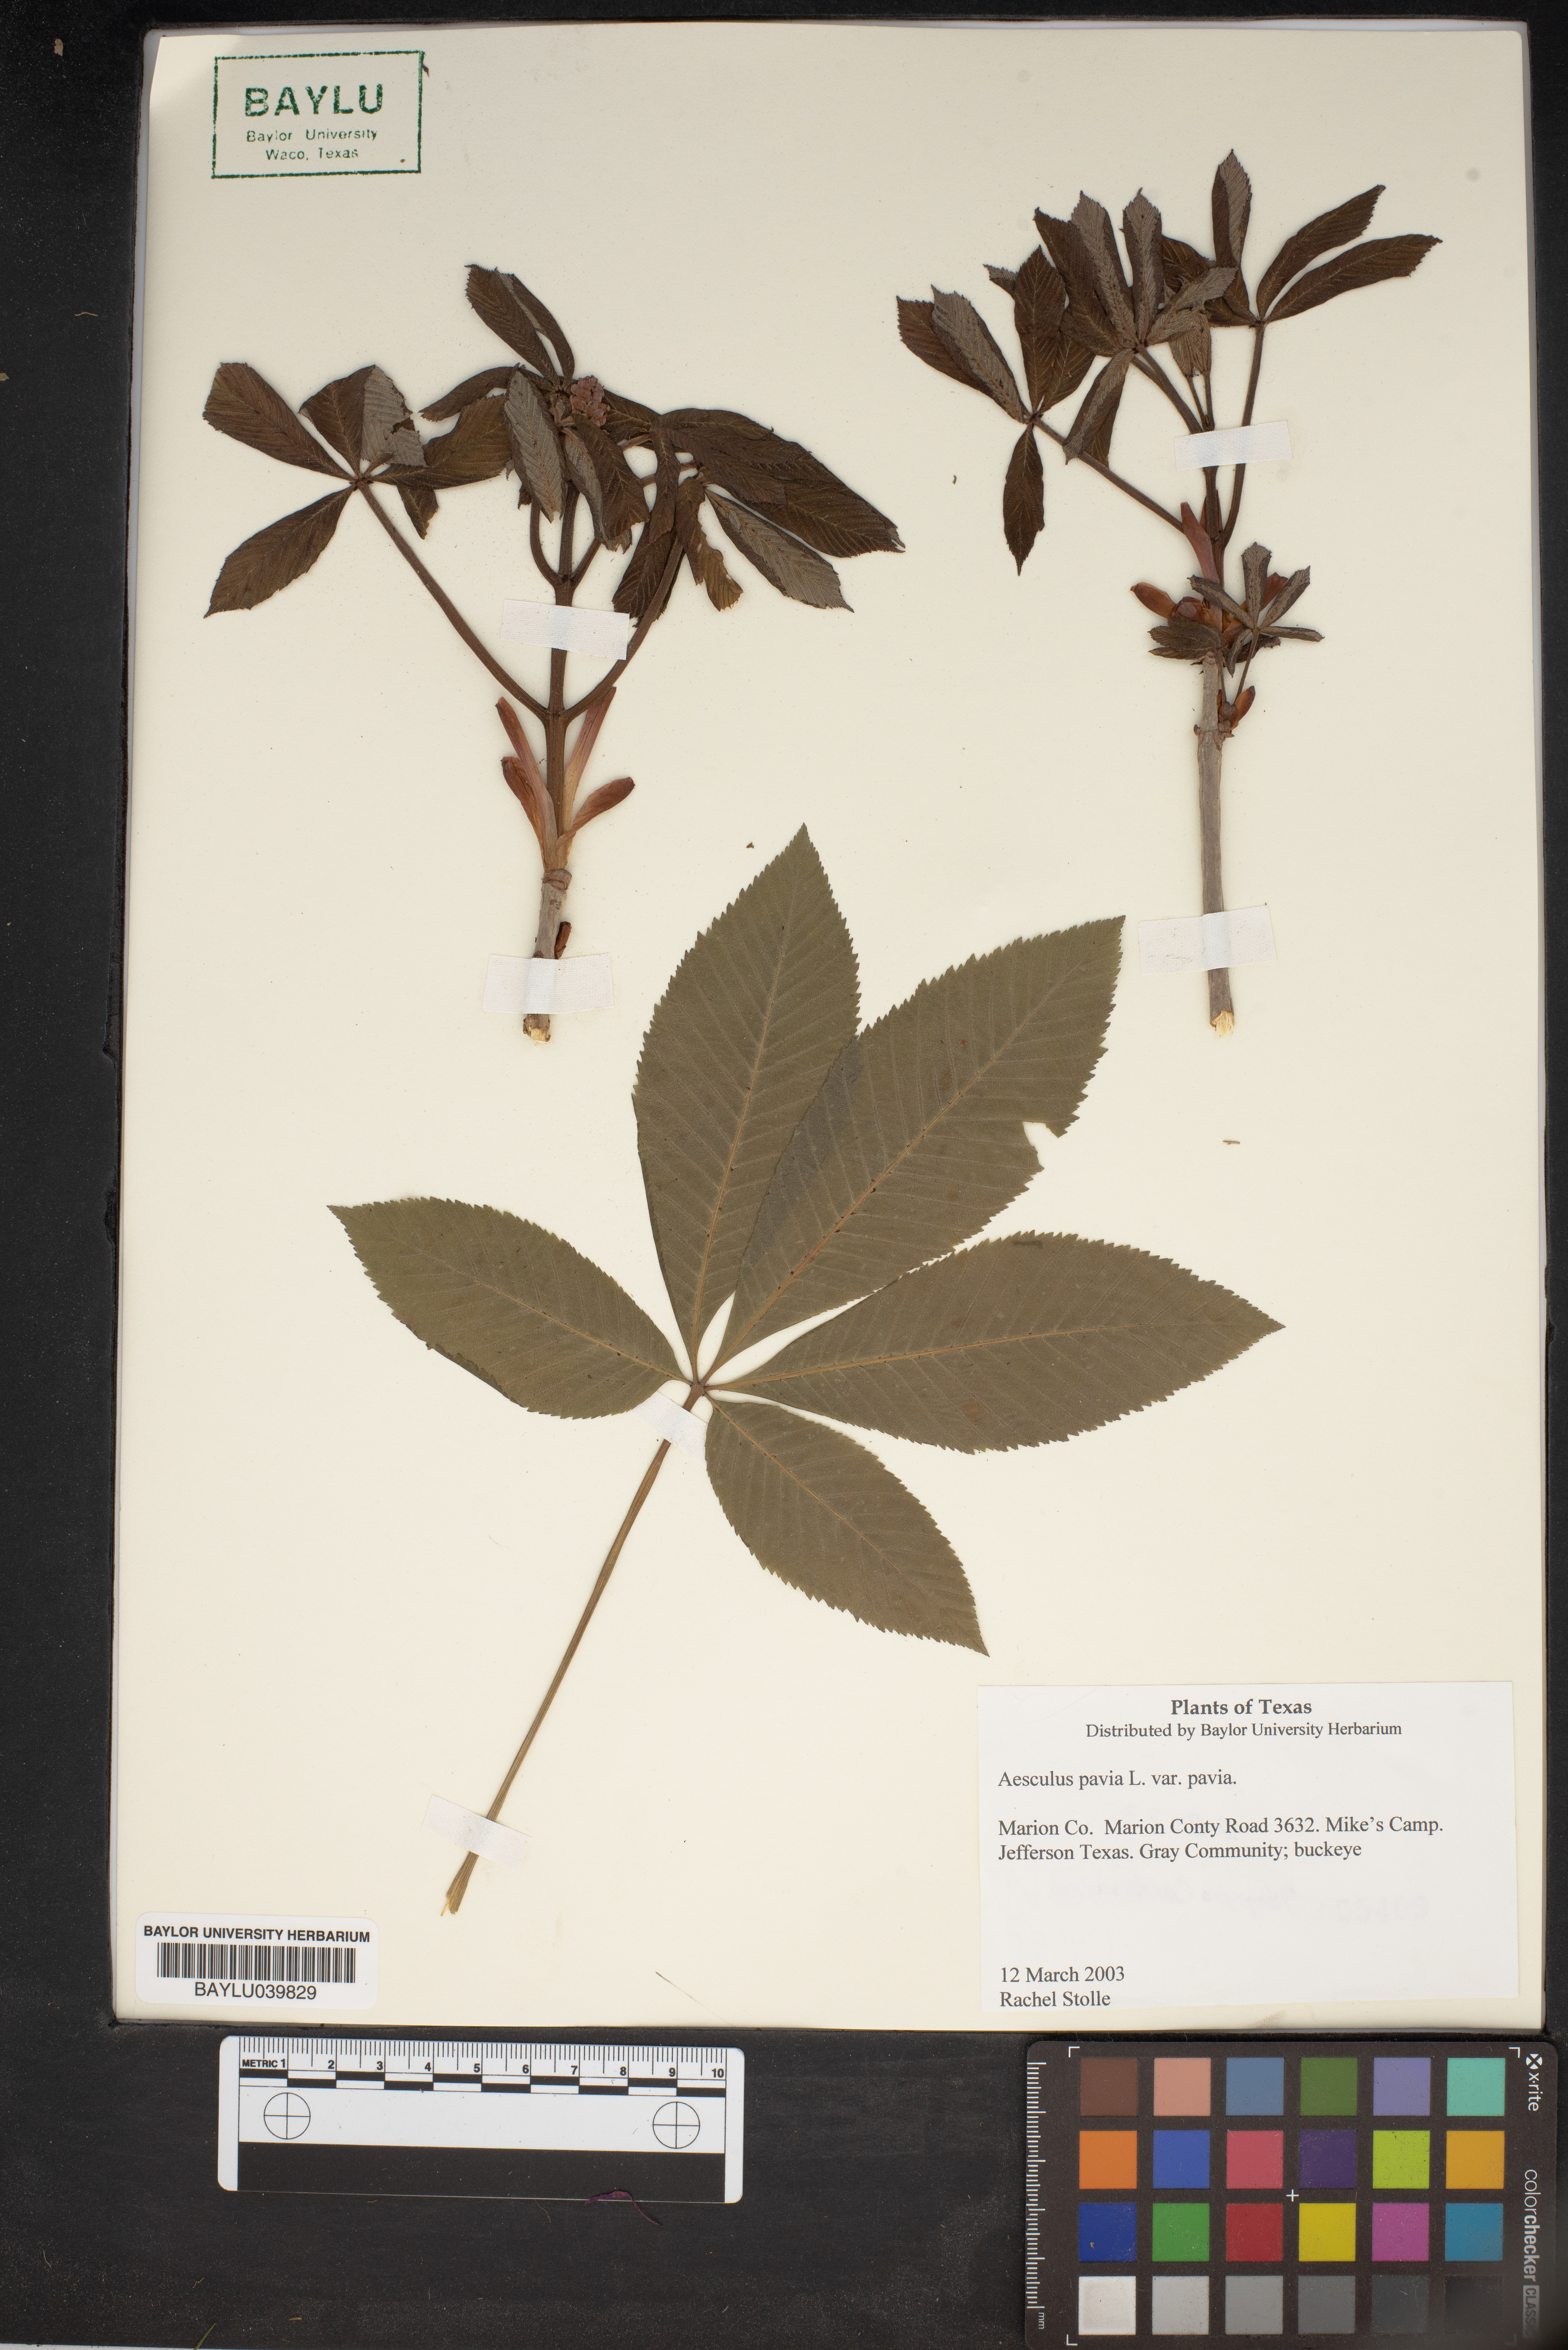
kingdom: Plantae
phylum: Tracheophyta
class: Magnoliopsida
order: Sapindales
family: Sapindaceae
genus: Aesculus
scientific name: Aesculus pavia
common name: Red buckeye
